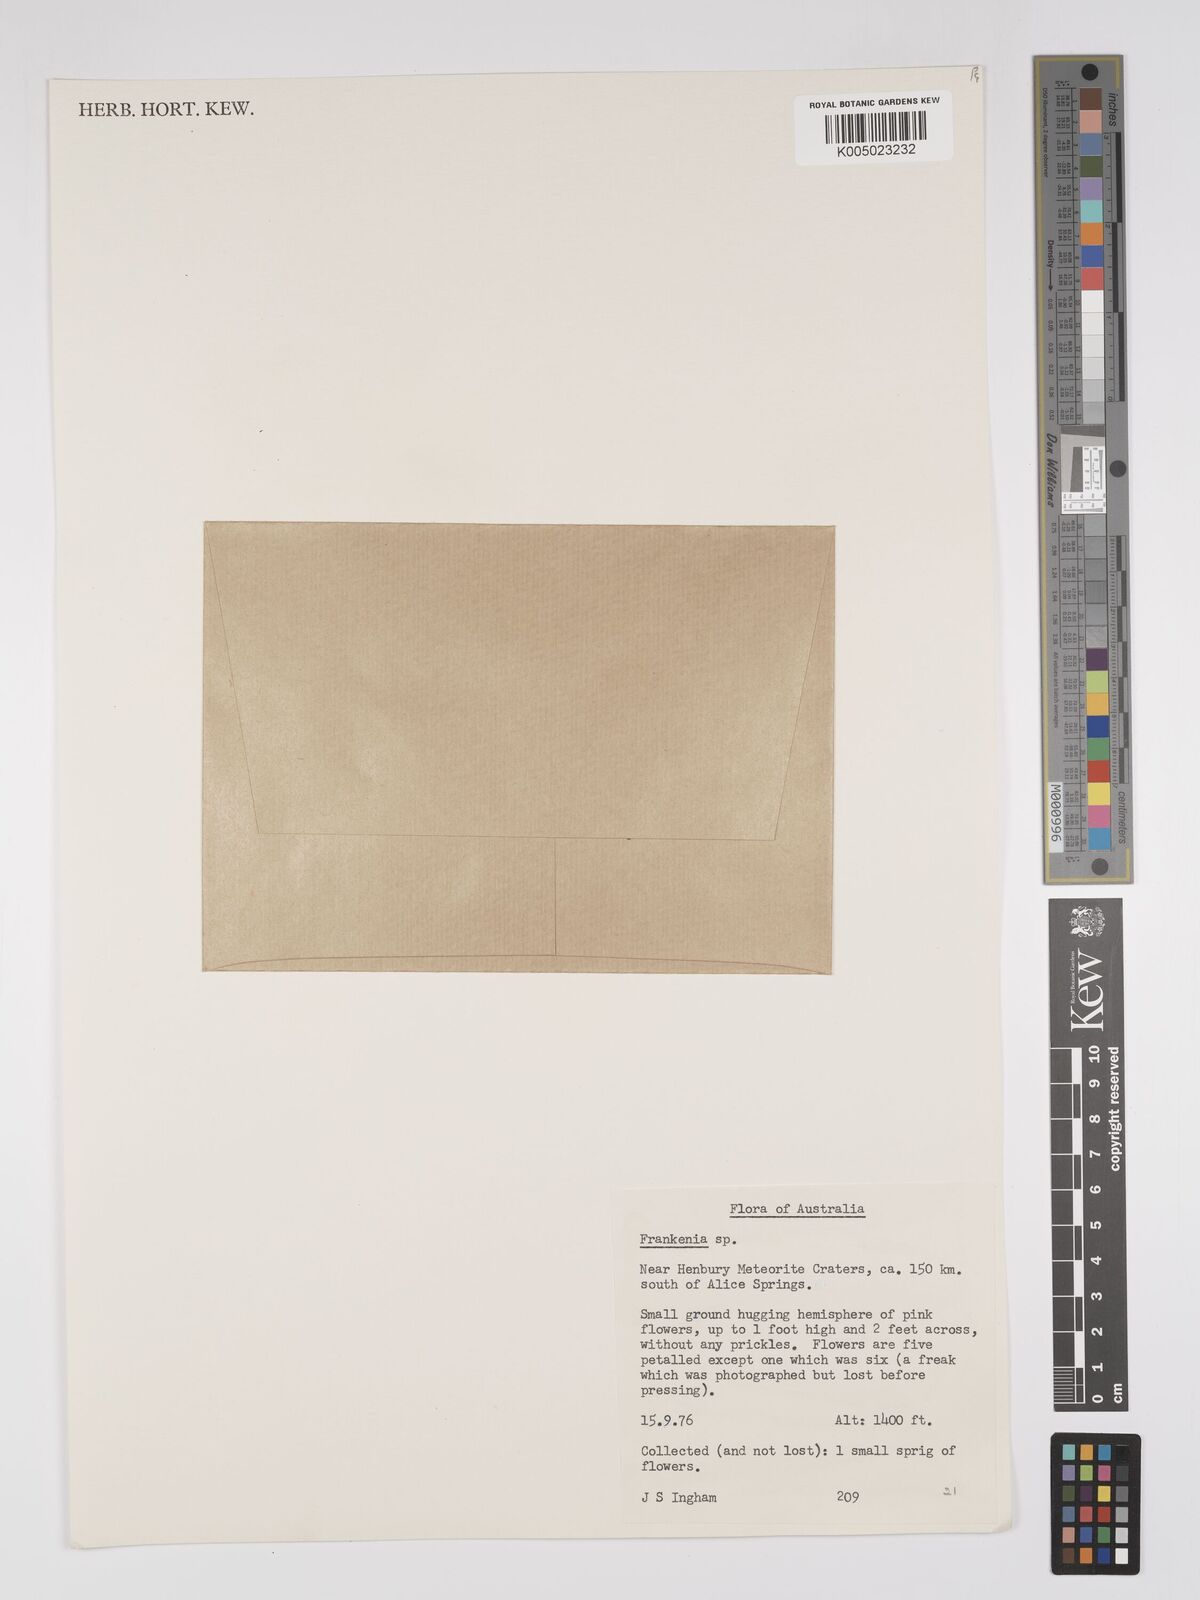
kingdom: Plantae
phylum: Tracheophyta
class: Magnoliopsida
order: Caryophyllales
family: Frankeniaceae
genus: Frankenia
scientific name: Frankenia
